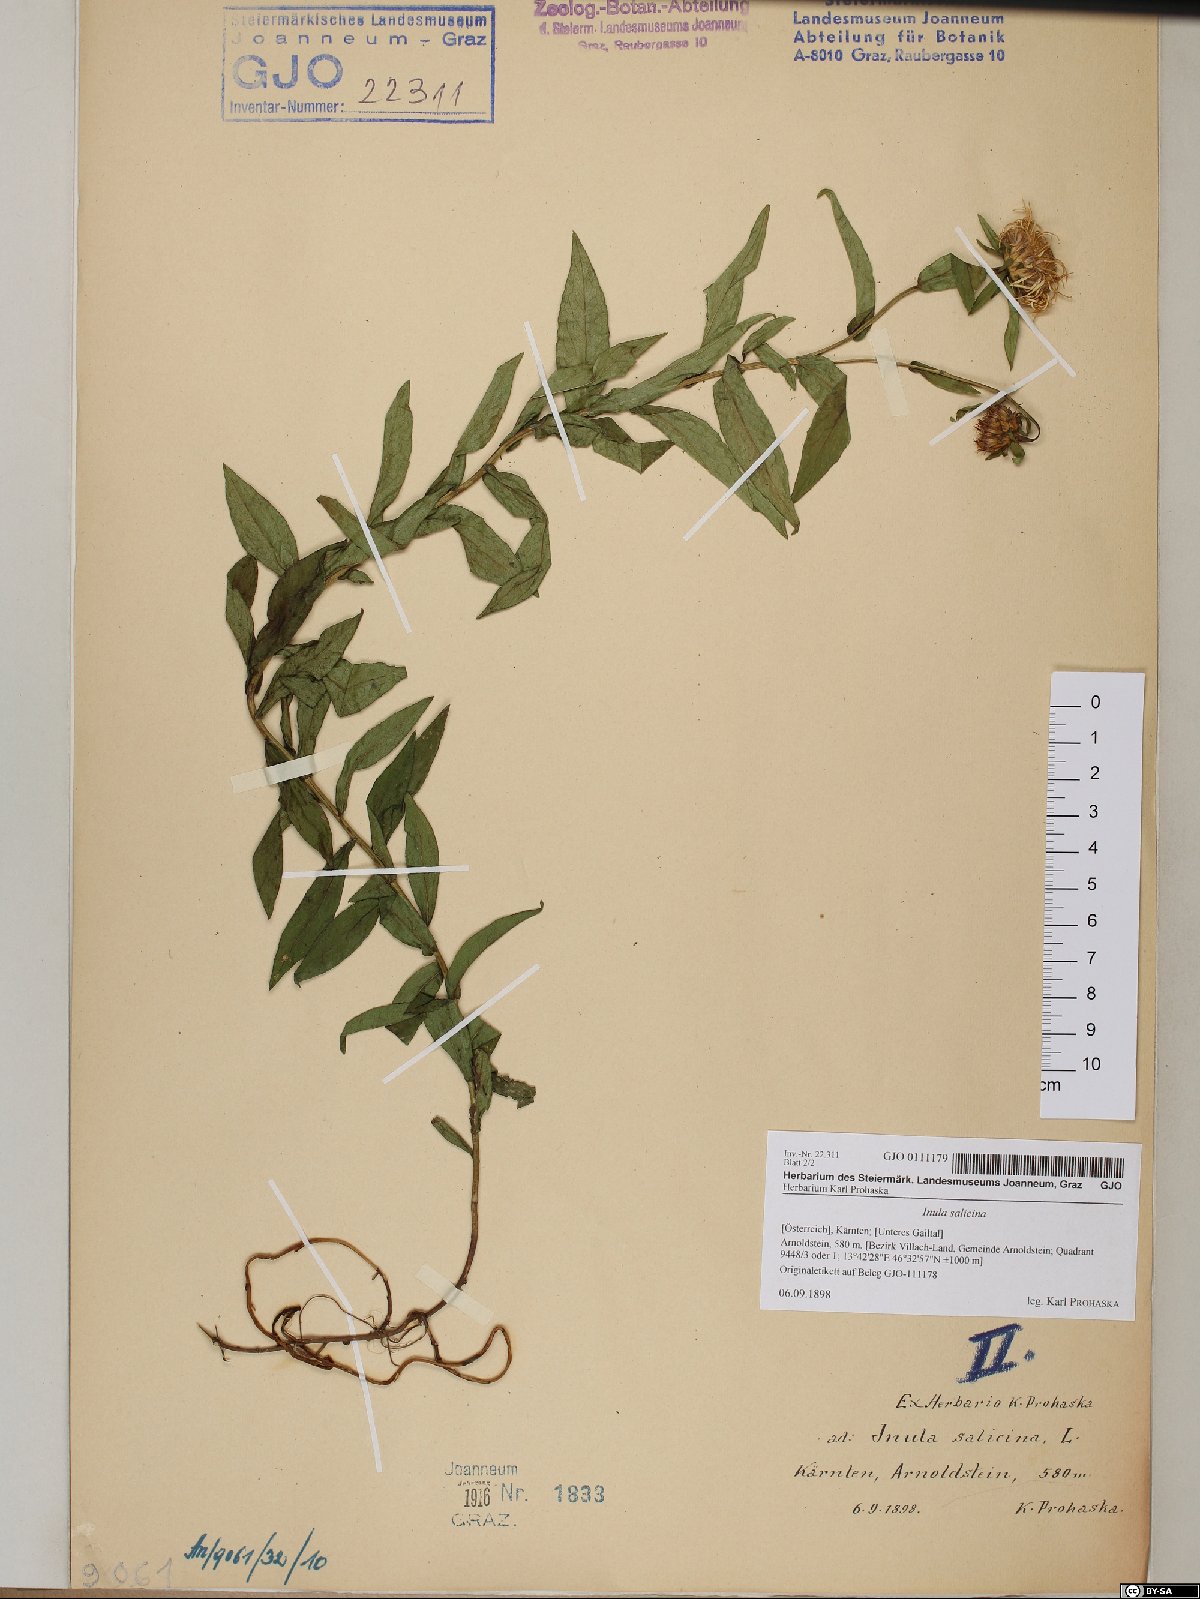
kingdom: Plantae
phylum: Tracheophyta
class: Magnoliopsida
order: Asterales
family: Asteraceae
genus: Pentanema
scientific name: Pentanema salicinum
